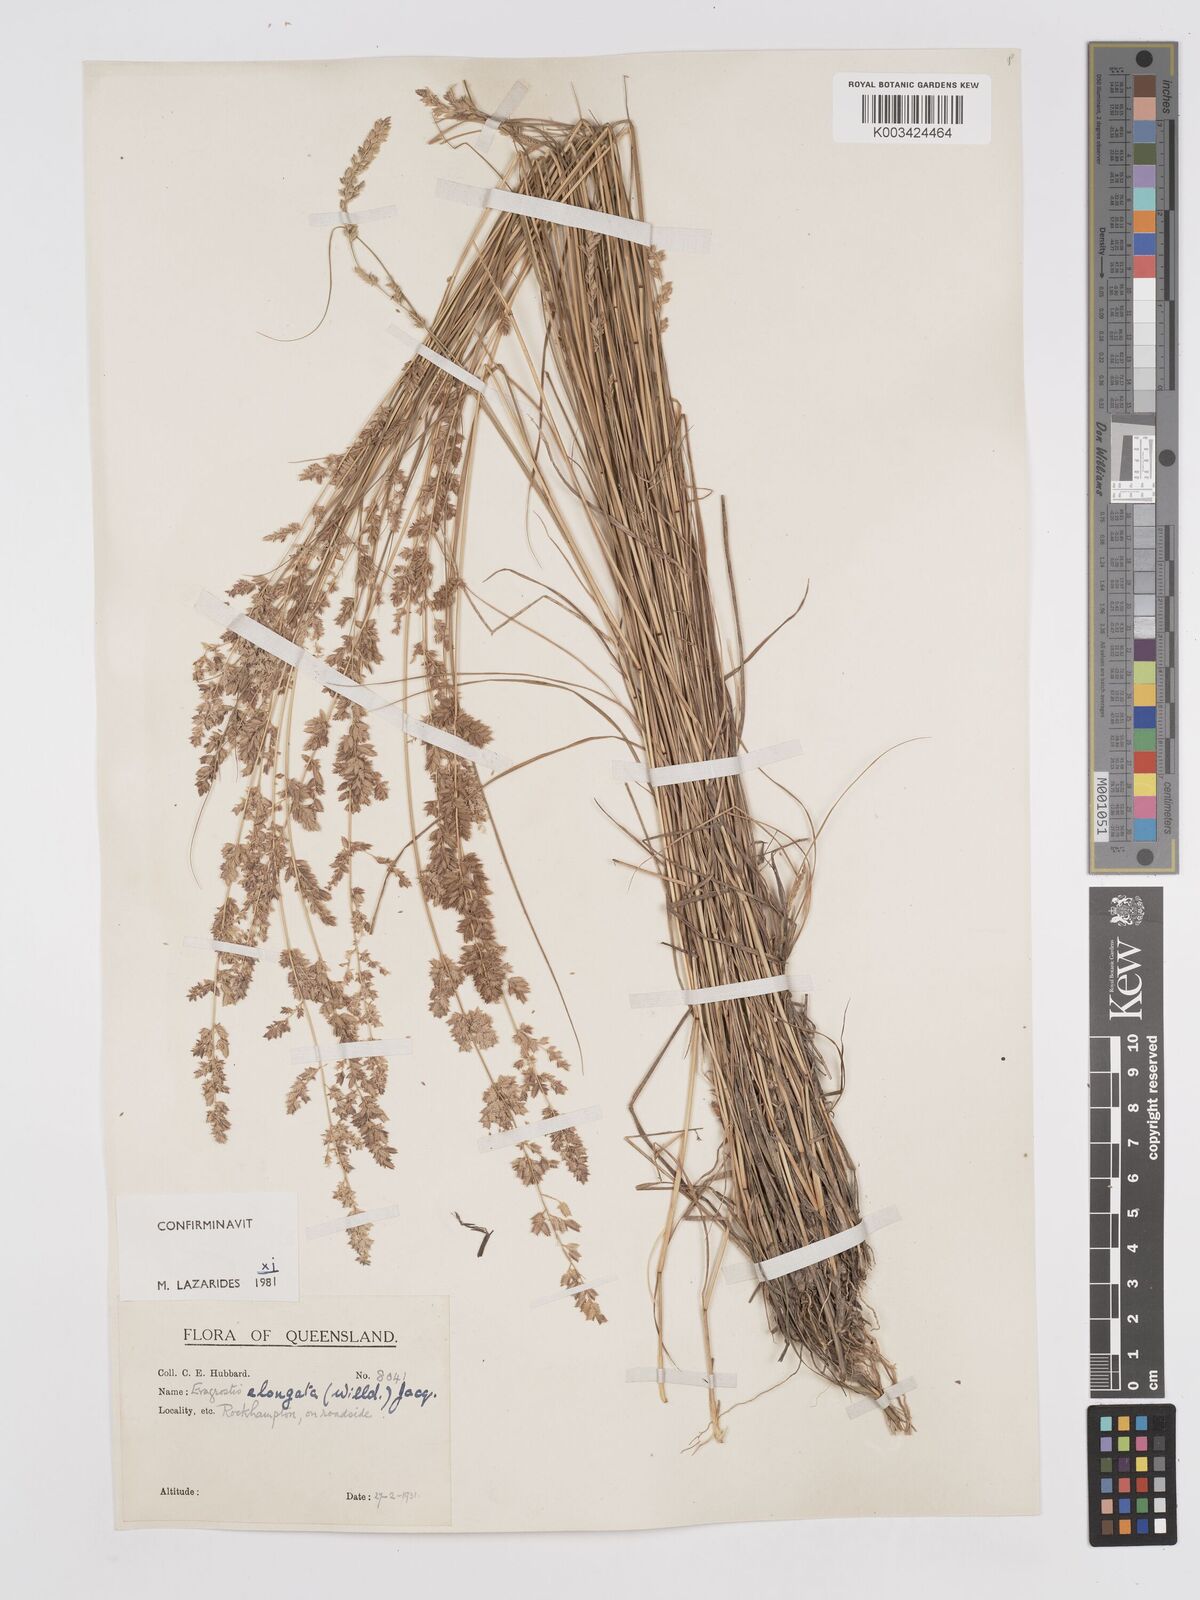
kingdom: Plantae
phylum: Tracheophyta
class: Liliopsida
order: Poales
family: Poaceae
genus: Eragrostis
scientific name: Eragrostis elongata
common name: Long lovegrass
